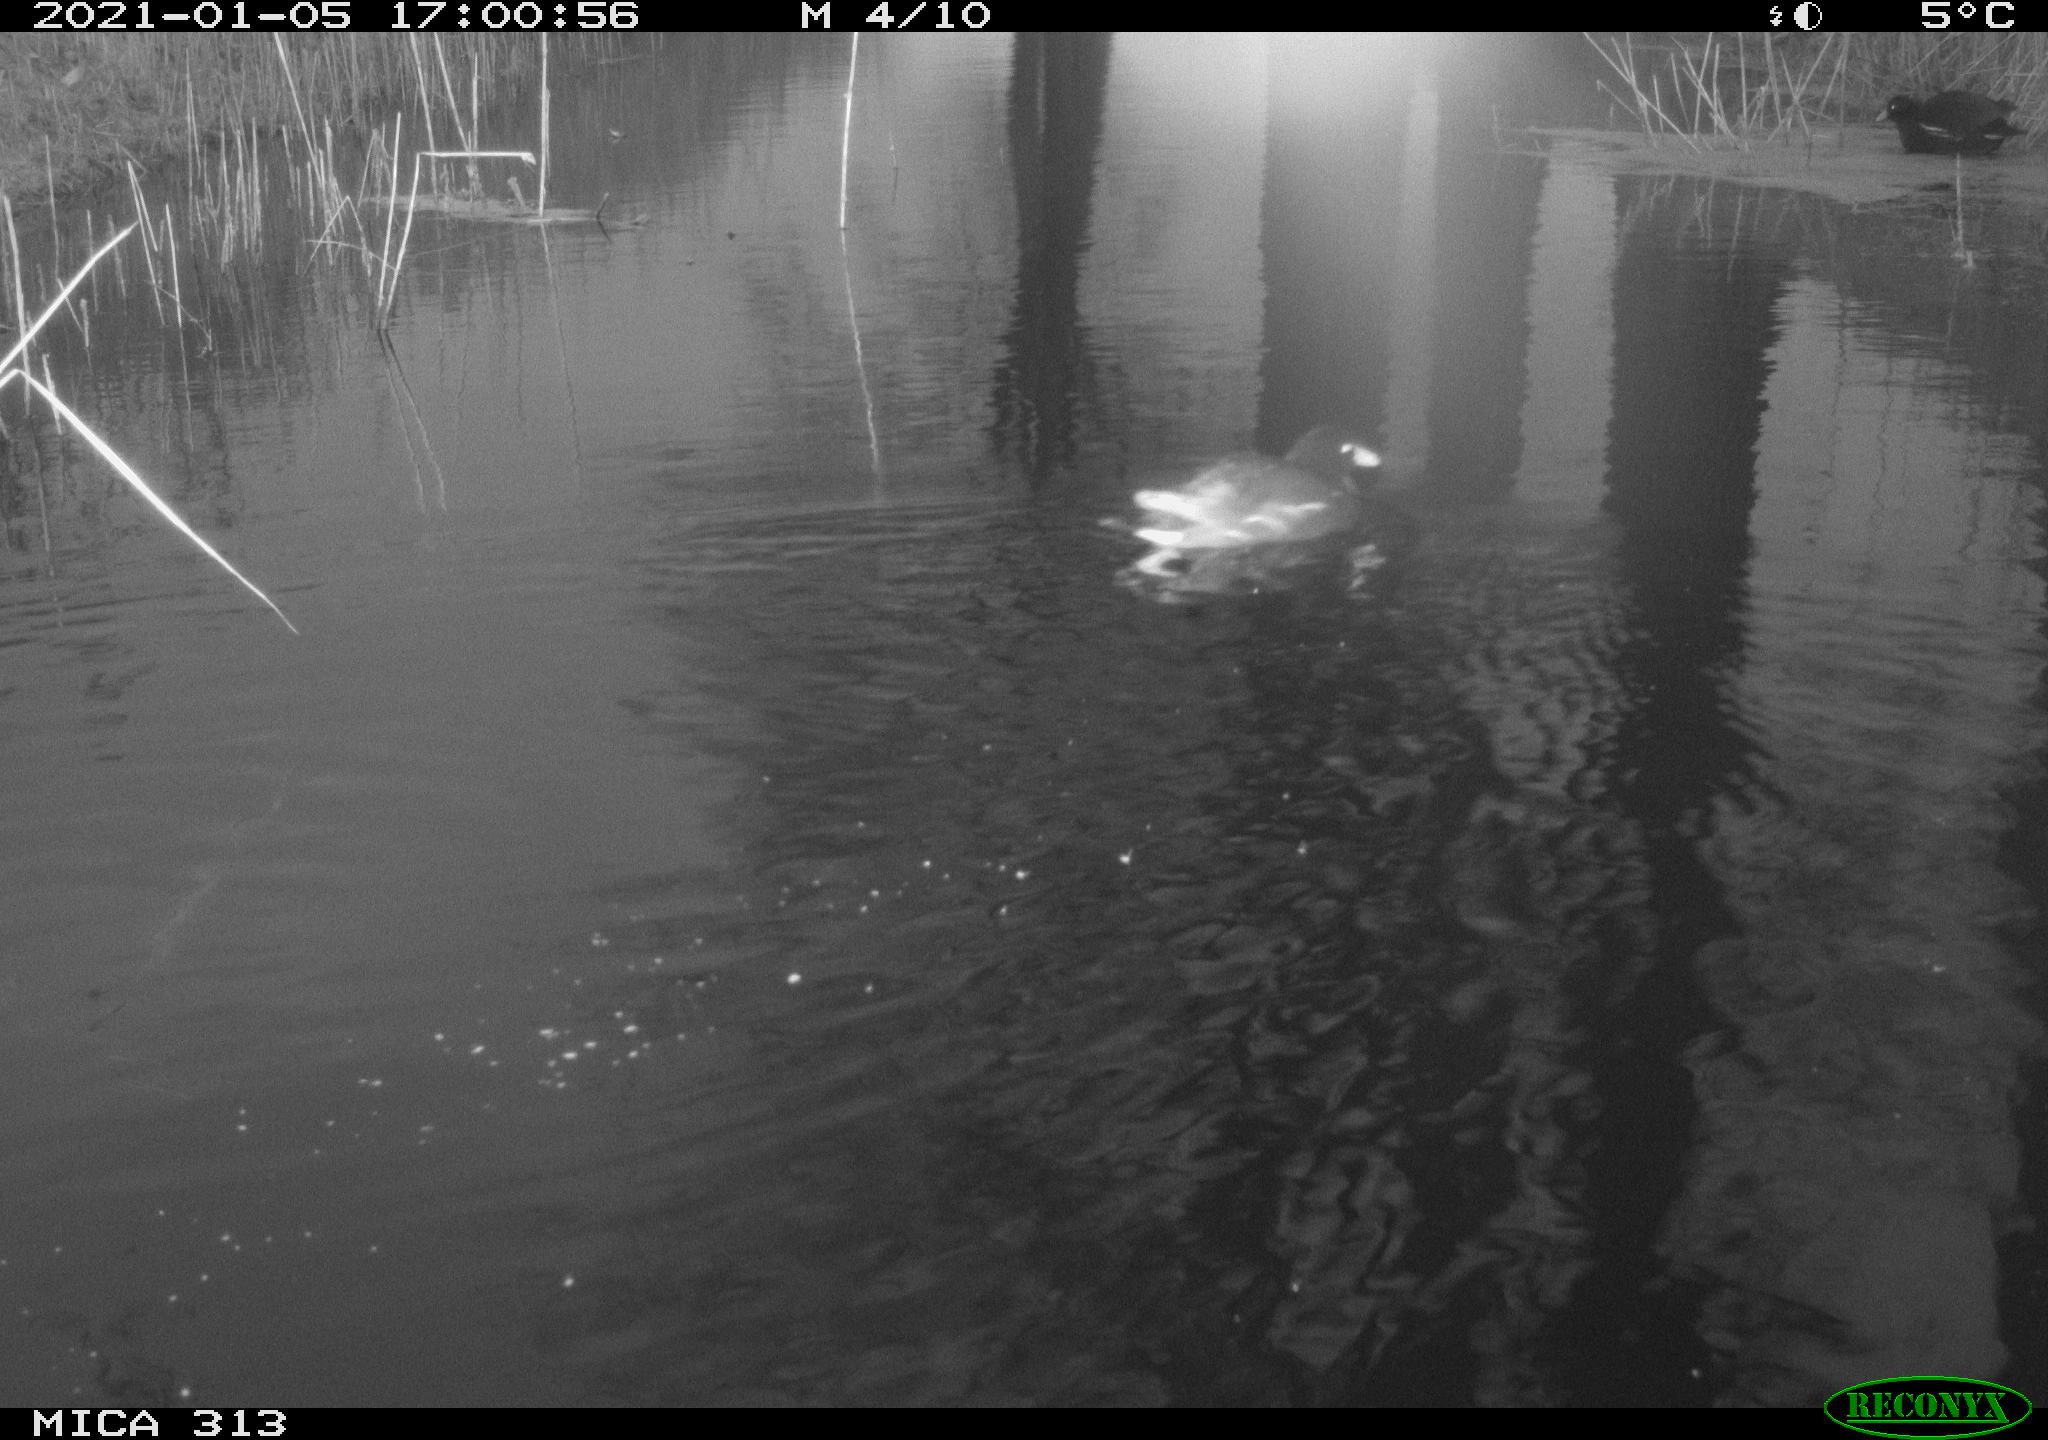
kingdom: Animalia
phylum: Chordata
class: Aves
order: Gruiformes
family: Rallidae
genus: Gallinula
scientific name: Gallinula chloropus
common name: Common moorhen
